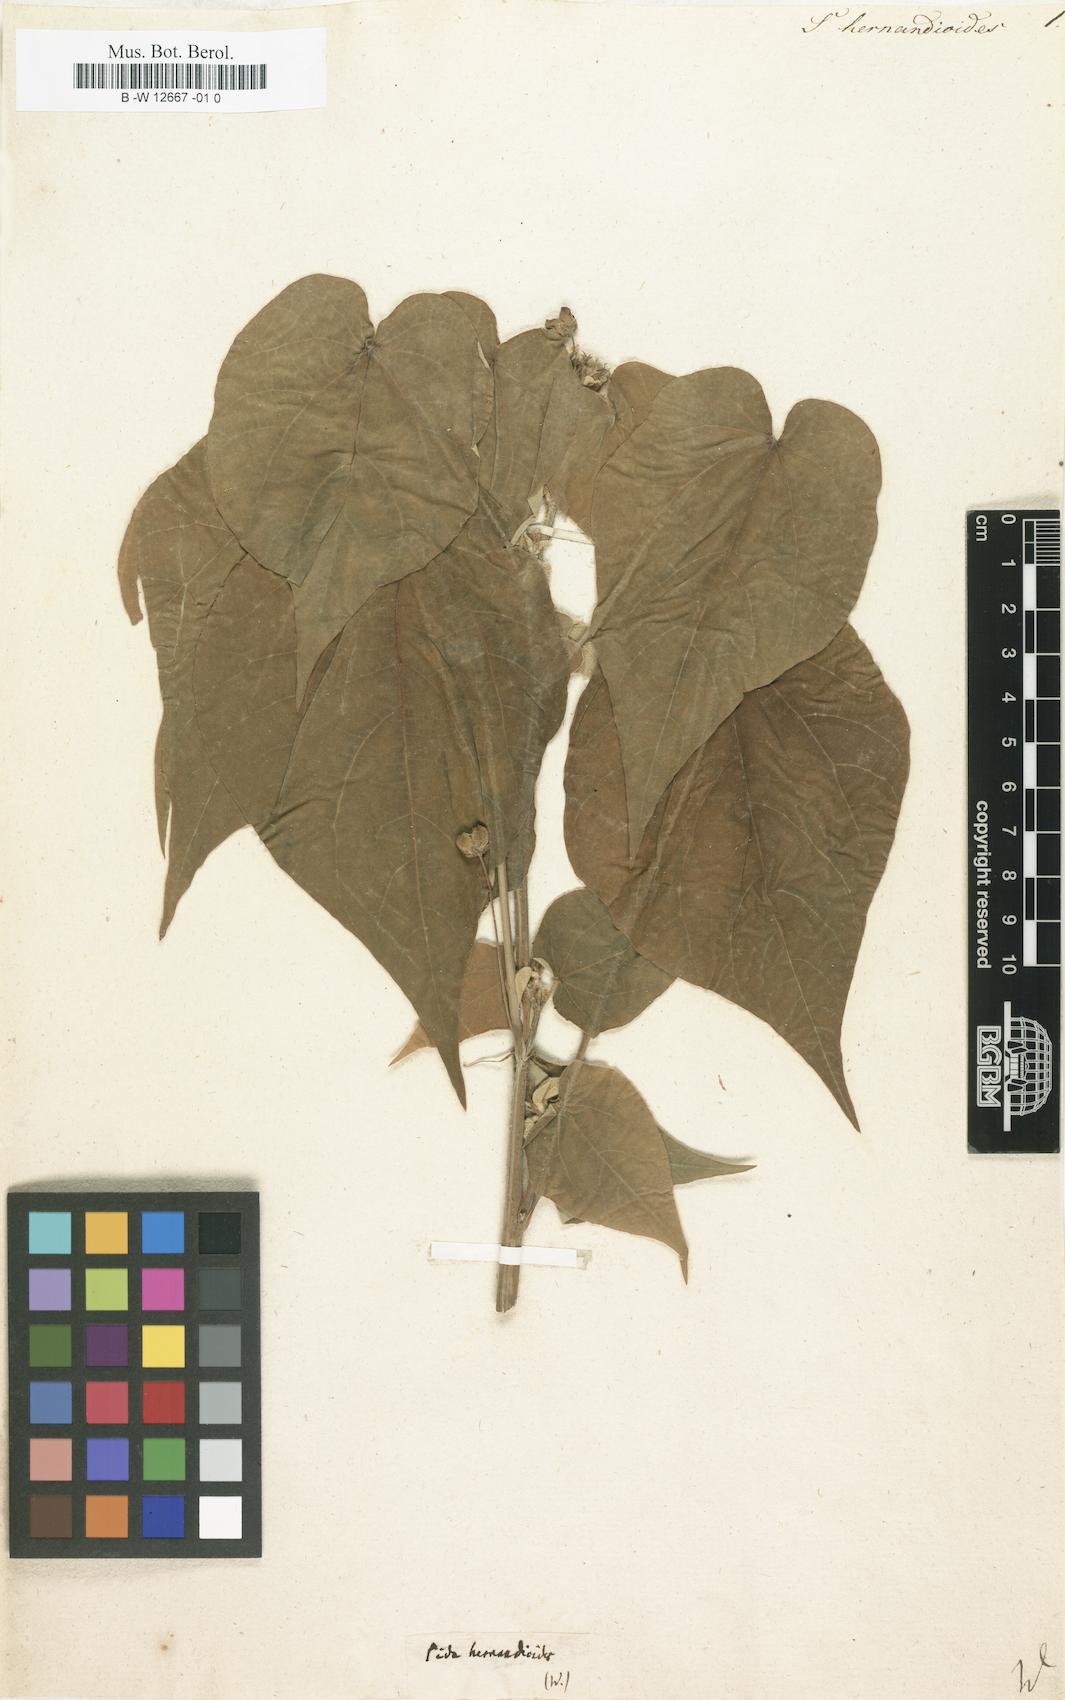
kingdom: Plantae
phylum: Tracheophyta
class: Magnoliopsida
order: Malvales
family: Malvaceae
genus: Wissadula
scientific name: Wissadula hernandioides
